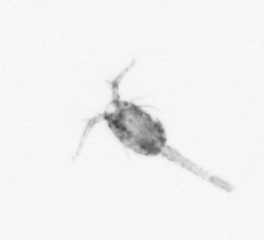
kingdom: Animalia
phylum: Arthropoda
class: Copepoda
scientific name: Copepoda
